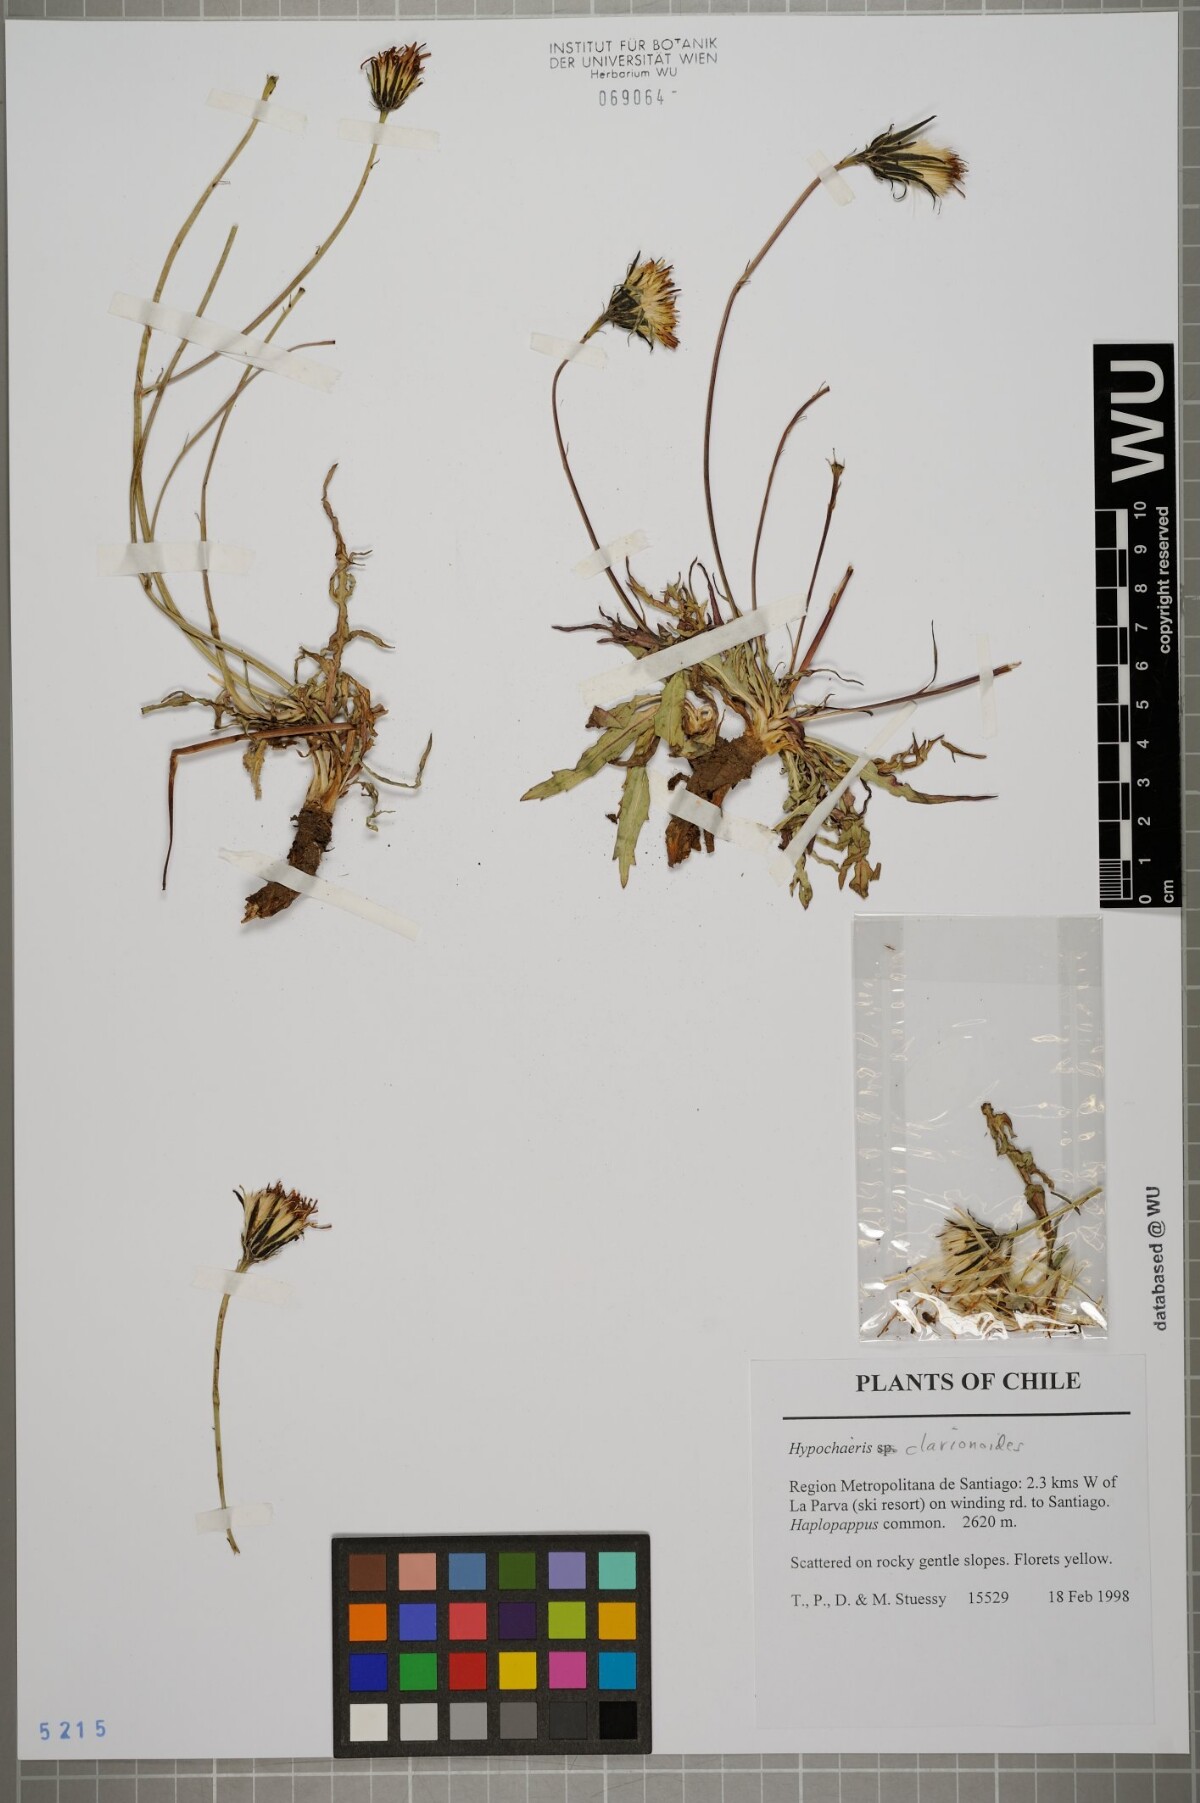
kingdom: Plantae
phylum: Tracheophyta
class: Magnoliopsida
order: Asterales
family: Asteraceae
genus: Hypochaeris
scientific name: Hypochaeris clarionoides
